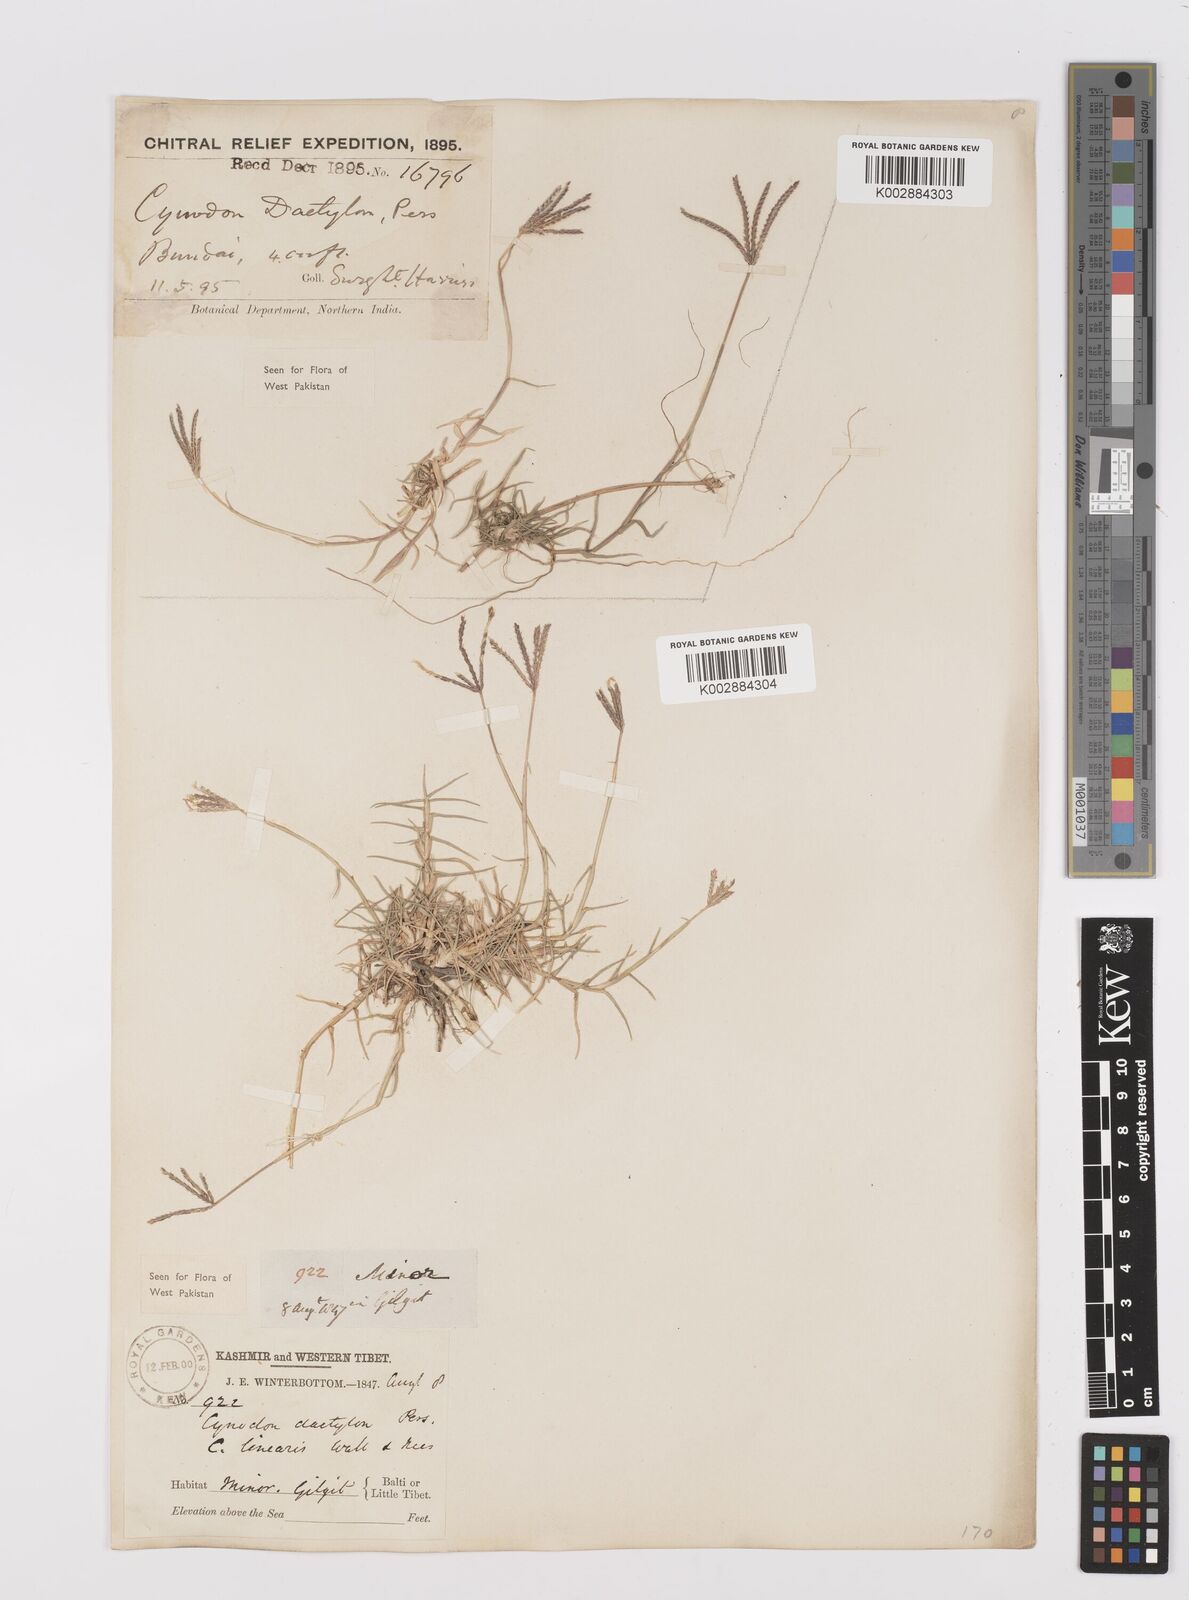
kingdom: Plantae
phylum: Tracheophyta
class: Liliopsida
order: Poales
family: Poaceae
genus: Cynodon
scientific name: Cynodon dactylon
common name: Bermuda grass
